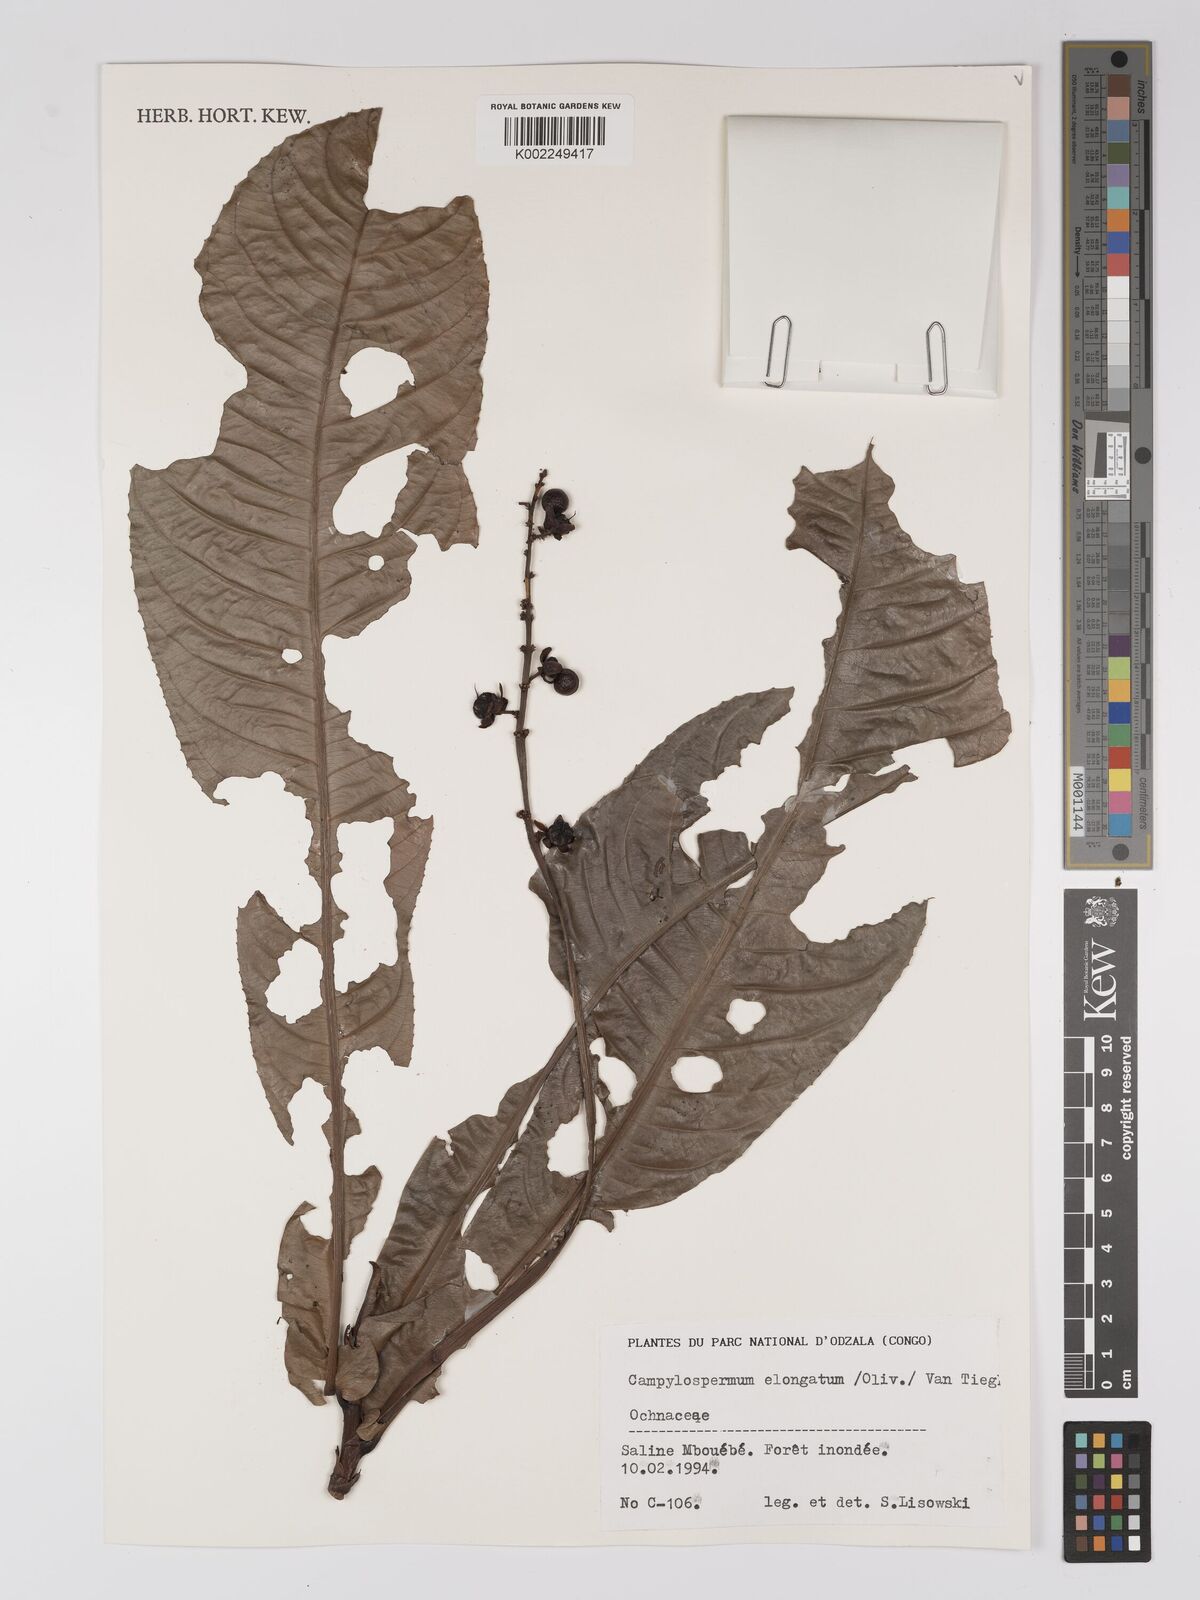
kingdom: Plantae
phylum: Tracheophyta
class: Magnoliopsida
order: Malpighiales
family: Ochnaceae
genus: Gomphia
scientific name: Gomphia elongata
